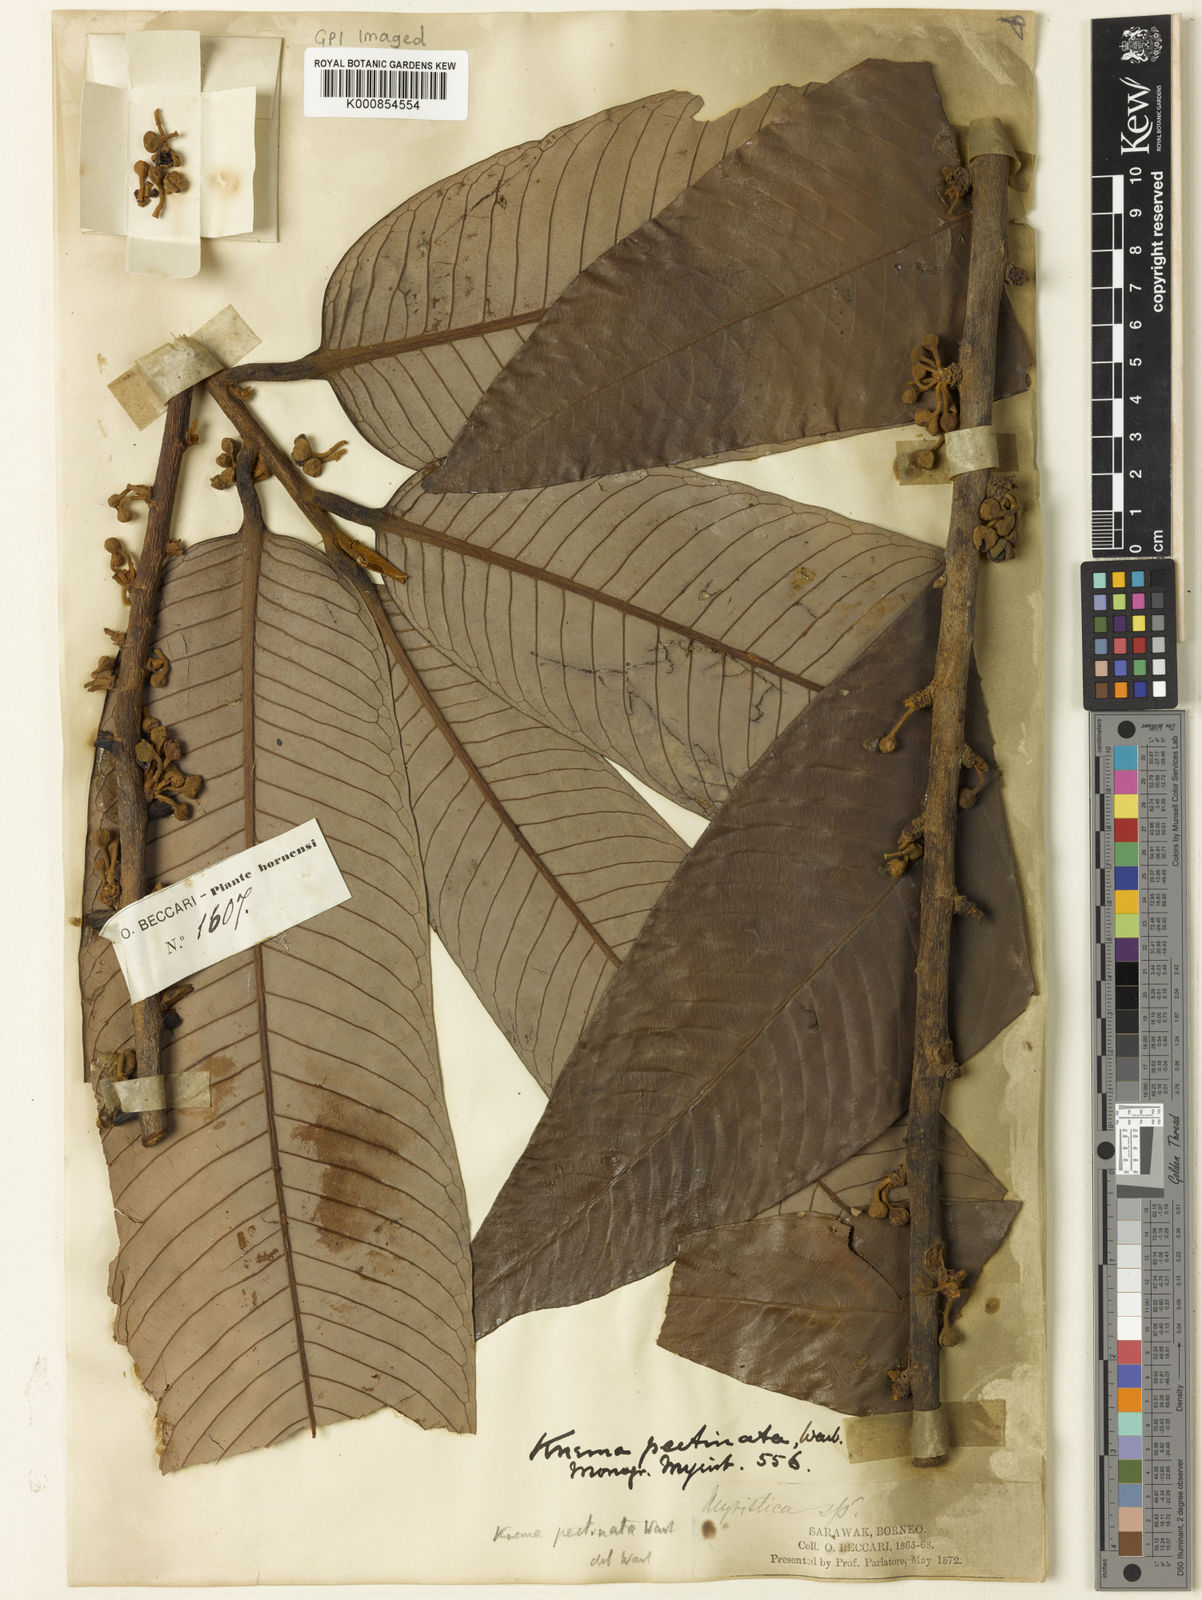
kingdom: Plantae
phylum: Tracheophyta
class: Magnoliopsida
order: Magnoliales
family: Myristicaceae
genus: Knema
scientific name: Knema pectinata
